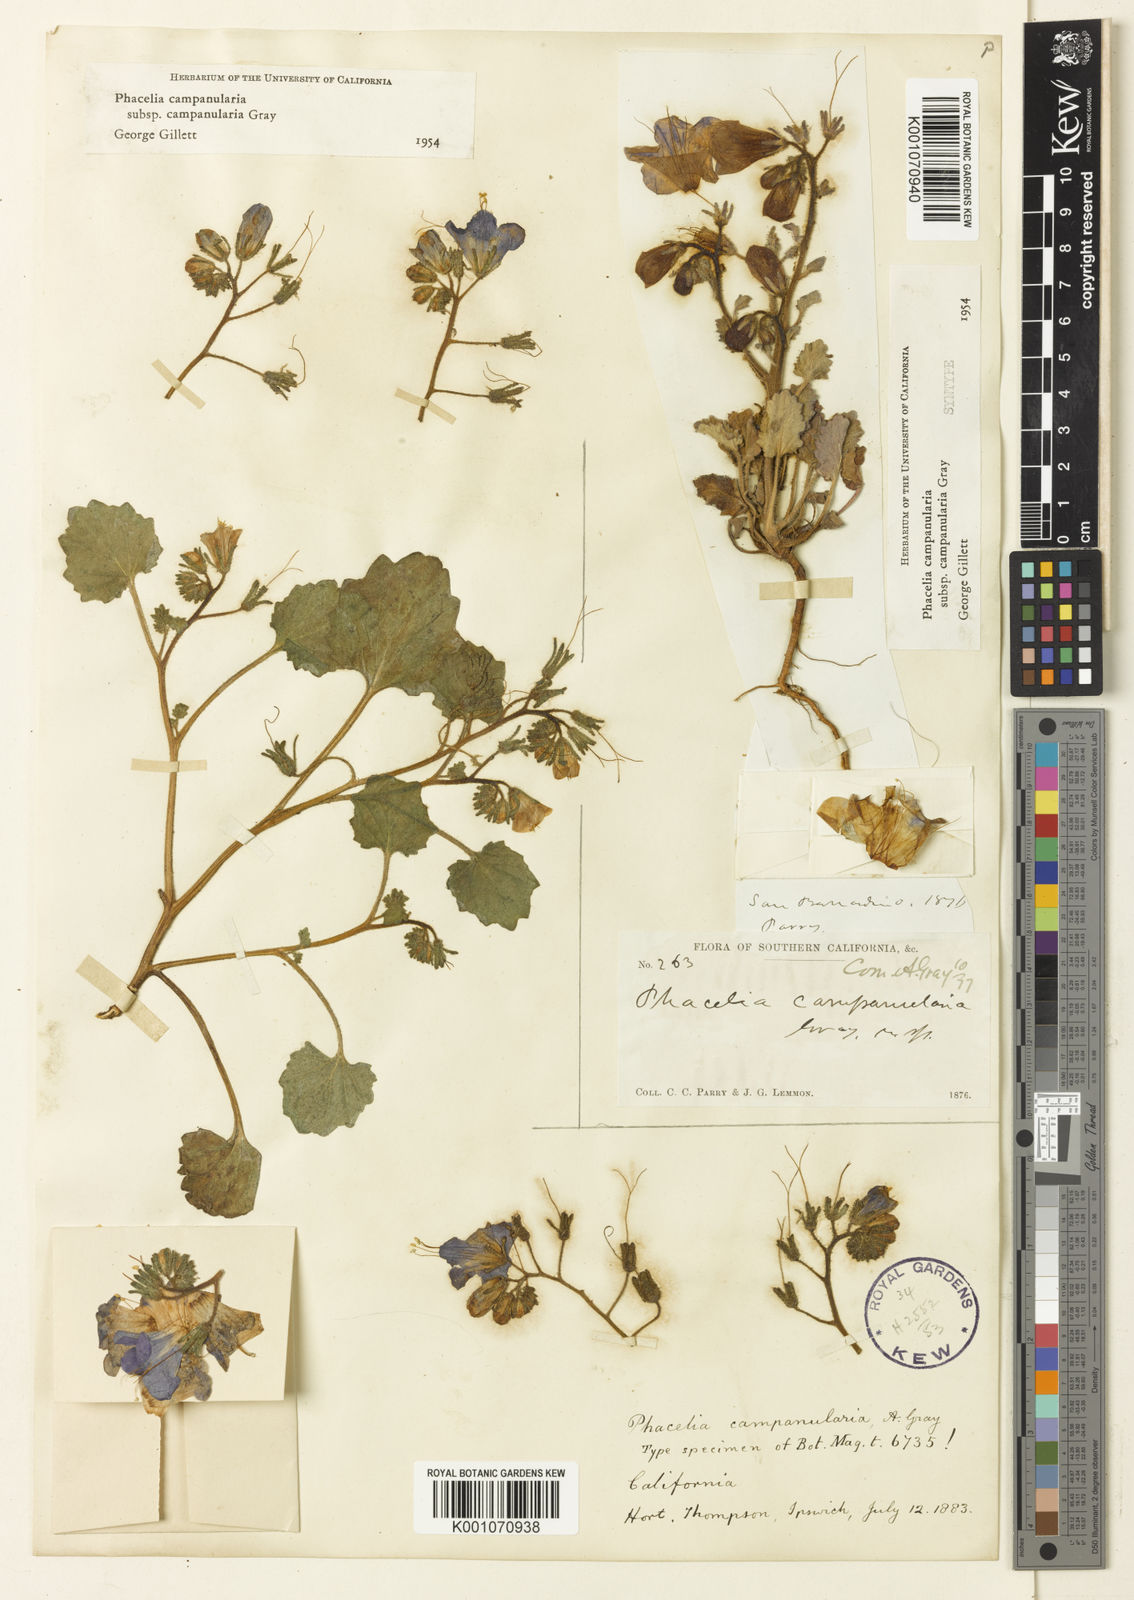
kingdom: Plantae
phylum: Tracheophyta
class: Magnoliopsida
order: Boraginales
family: Hydrophyllaceae
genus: Phacelia
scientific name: Phacelia campanularia
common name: California bluebell
